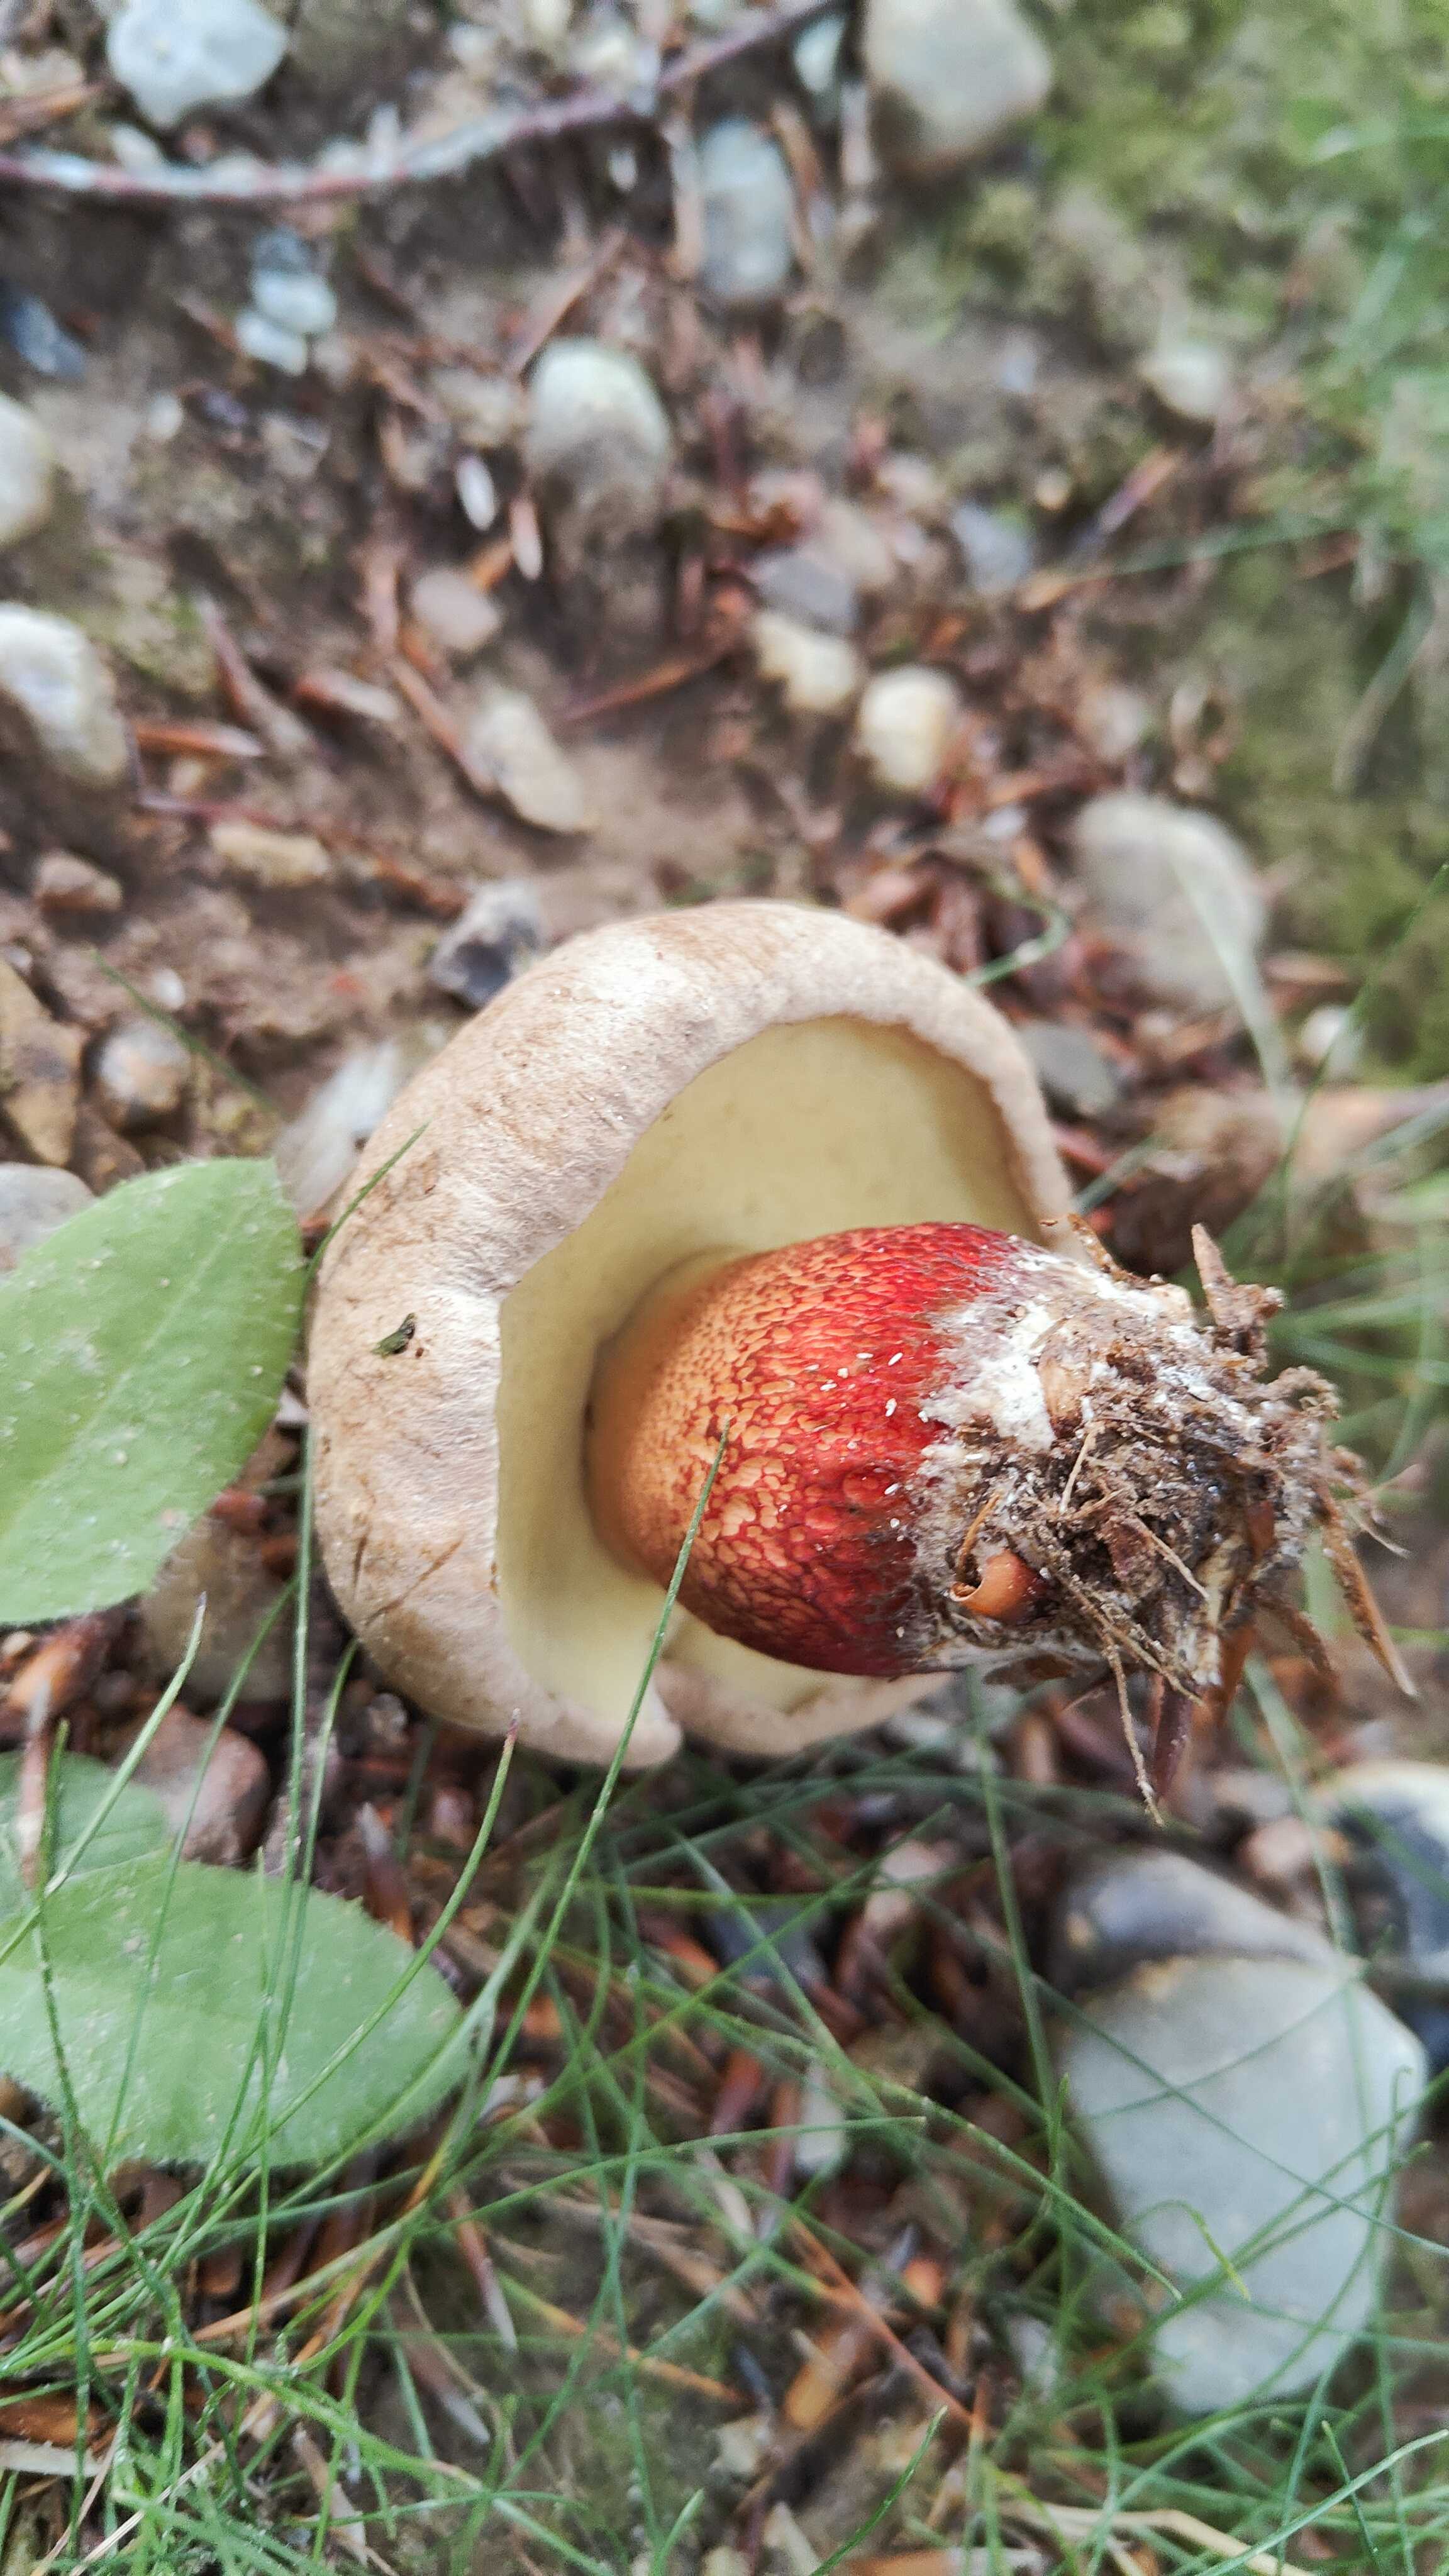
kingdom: Fungi
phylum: Basidiomycota
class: Agaricomycetes
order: Boletales
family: Boletaceae
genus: Caloboletus
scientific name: Caloboletus calopus
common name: skønfodet rørhat
